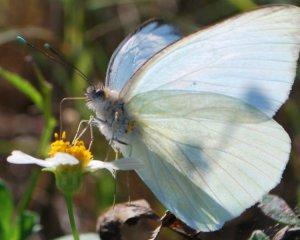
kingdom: Animalia
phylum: Arthropoda
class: Insecta
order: Lepidoptera
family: Pieridae
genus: Ascia
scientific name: Ascia monuste
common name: Great Southern White
